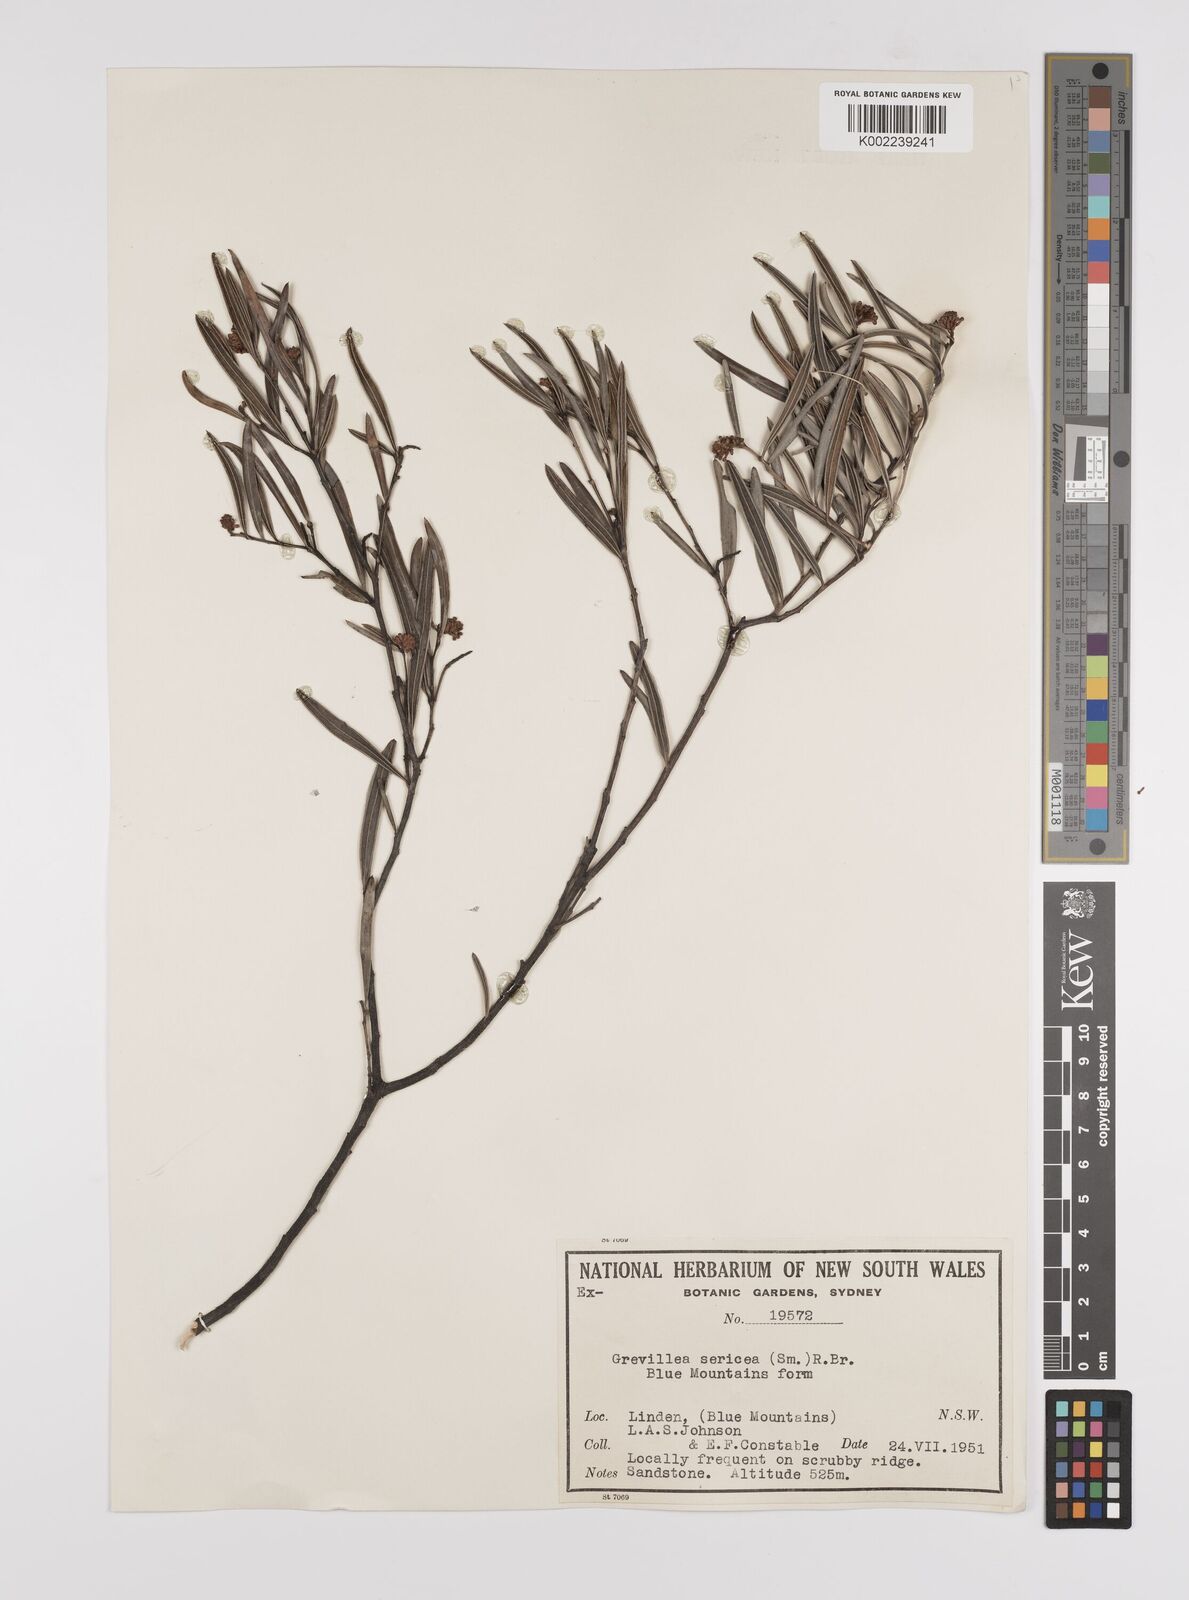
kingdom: Plantae
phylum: Tracheophyta
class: Magnoliopsida
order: Proteales
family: Proteaceae
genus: Grevillea
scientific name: Grevillea sericea
